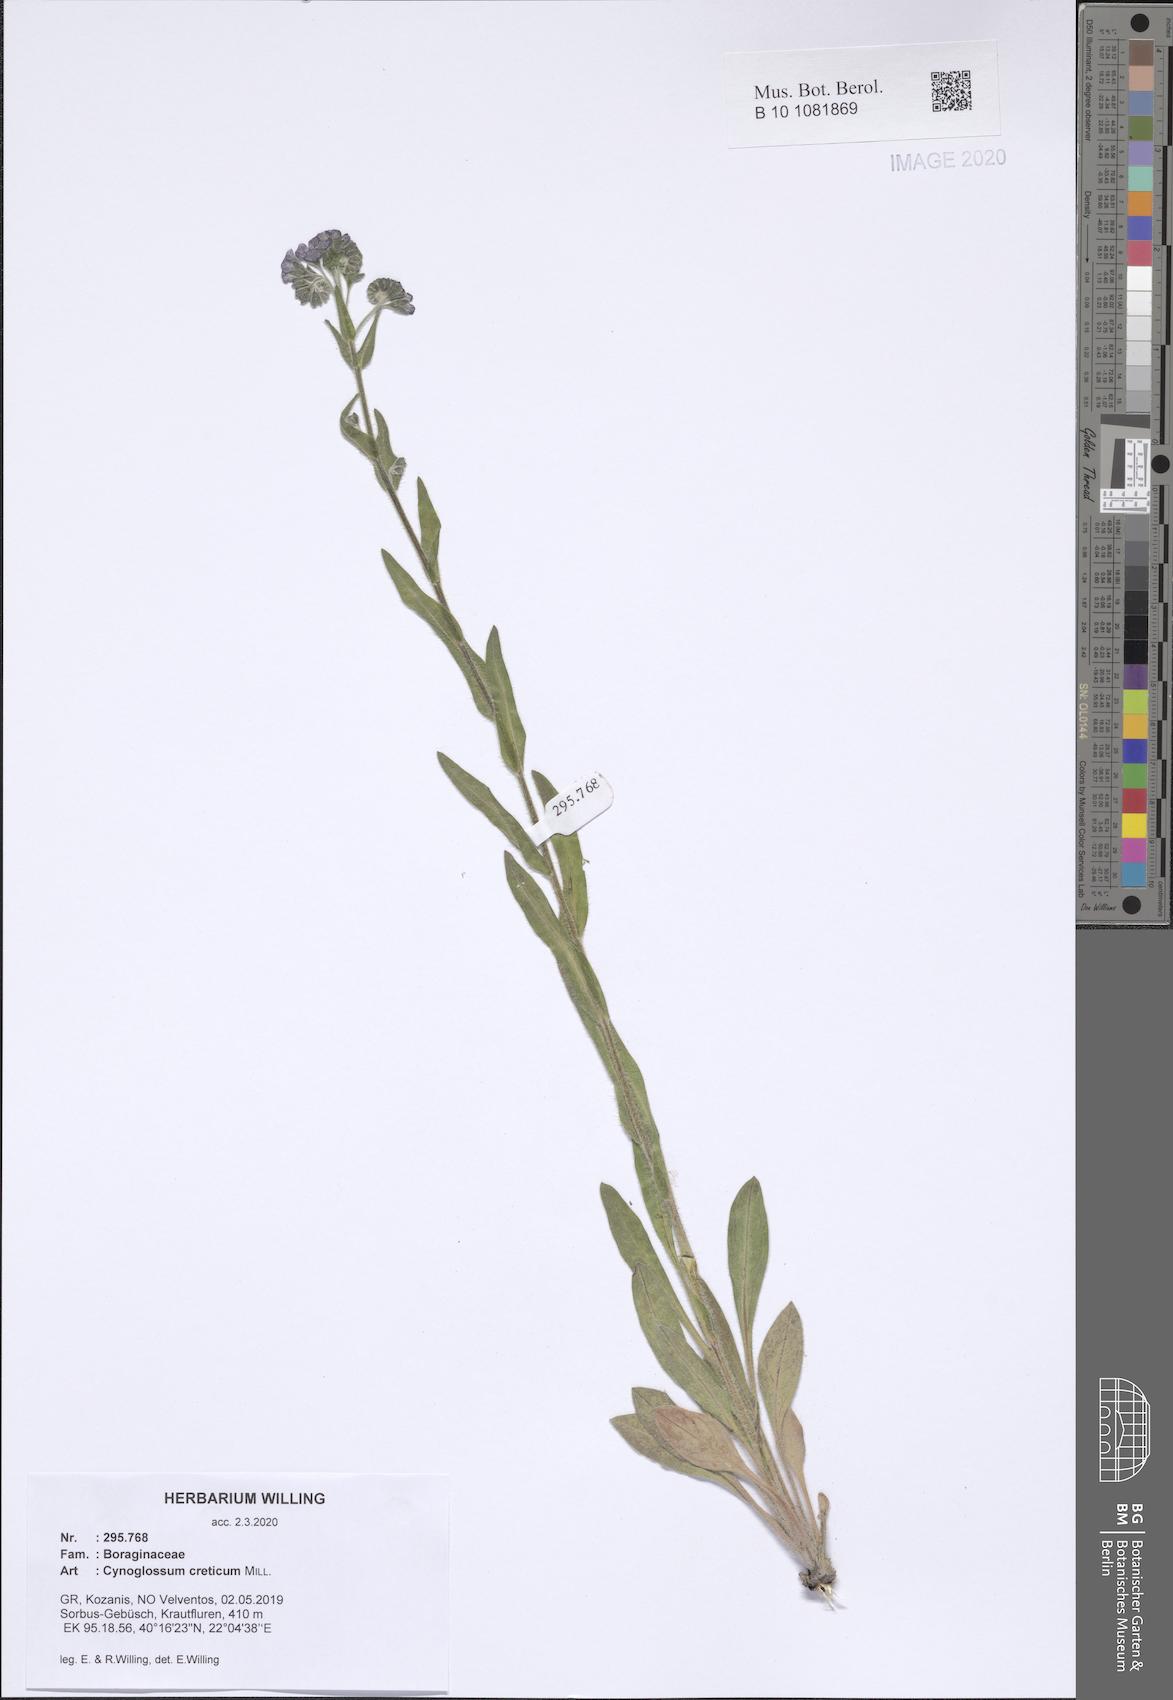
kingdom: Plantae
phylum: Tracheophyta
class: Magnoliopsida
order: Boraginales
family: Boraginaceae
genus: Cynoglossum
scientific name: Cynoglossum creticum
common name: Blue hound's tongue
